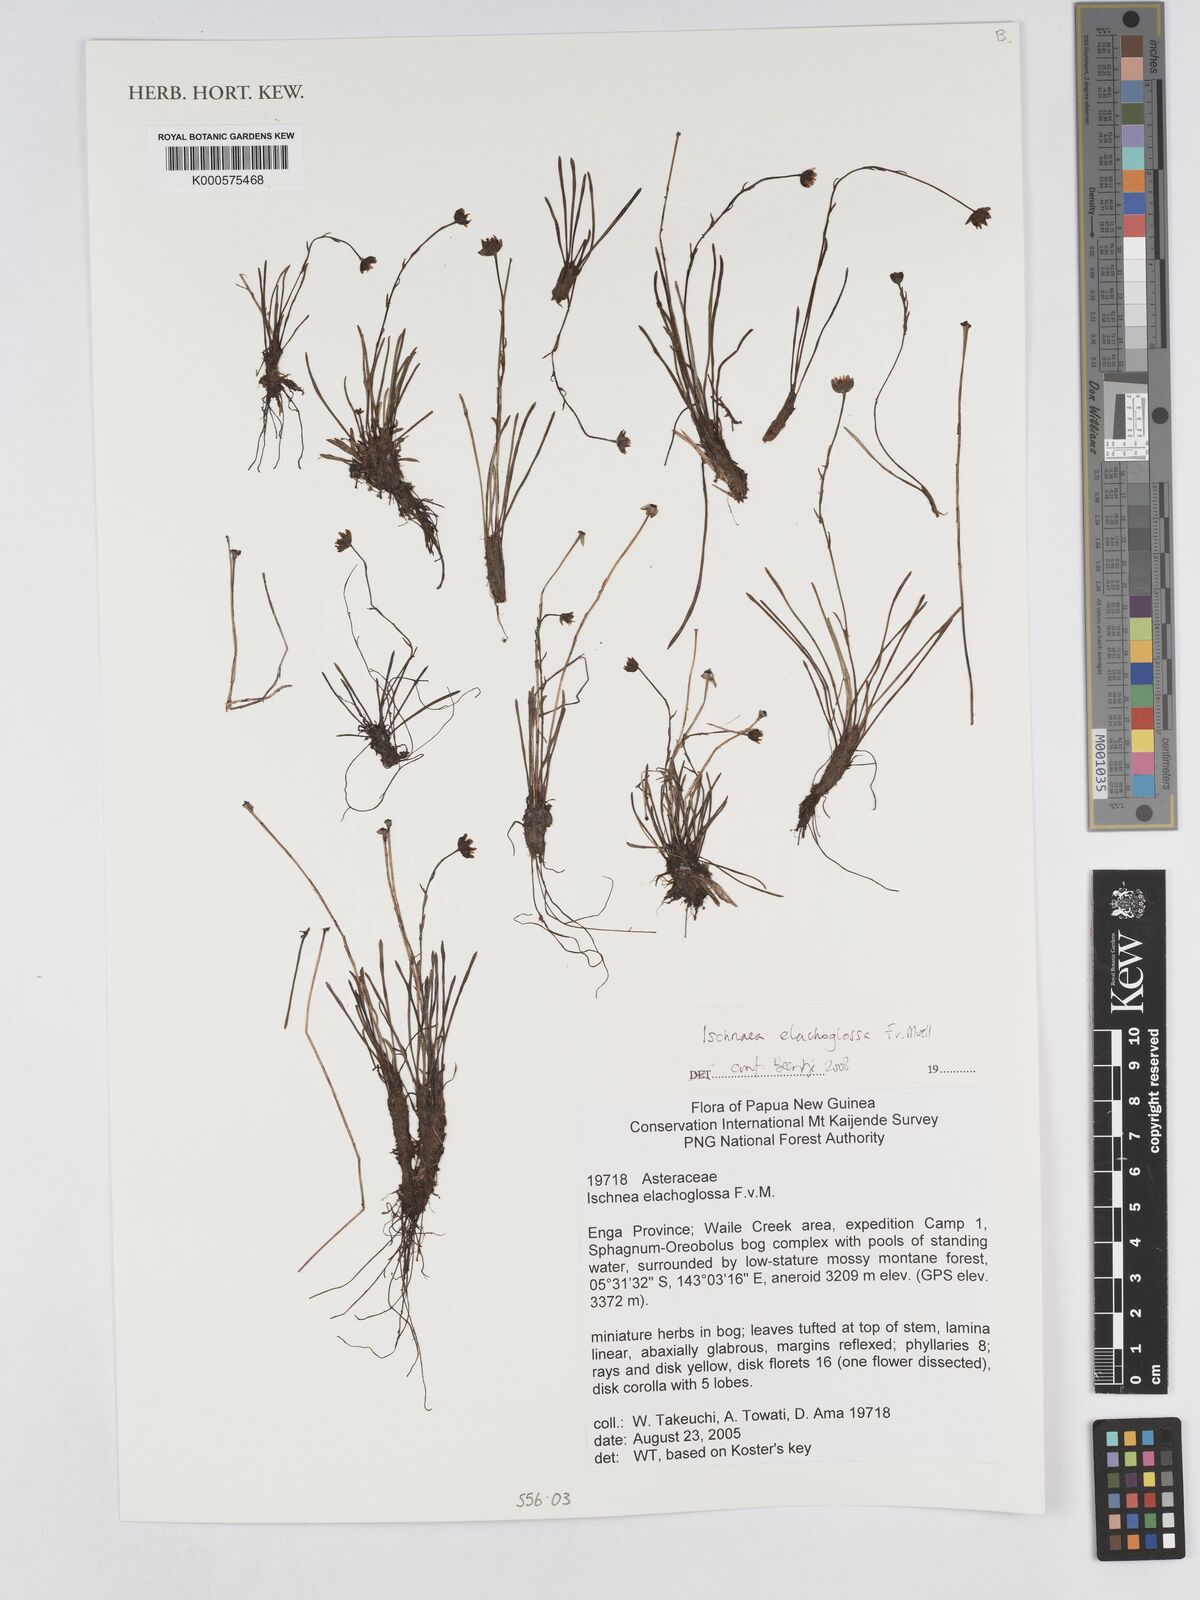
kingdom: Plantae
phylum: Tracheophyta
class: Magnoliopsida
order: Asterales
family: Asteraceae
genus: Ischnea
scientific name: Ischnea elachoglossa
